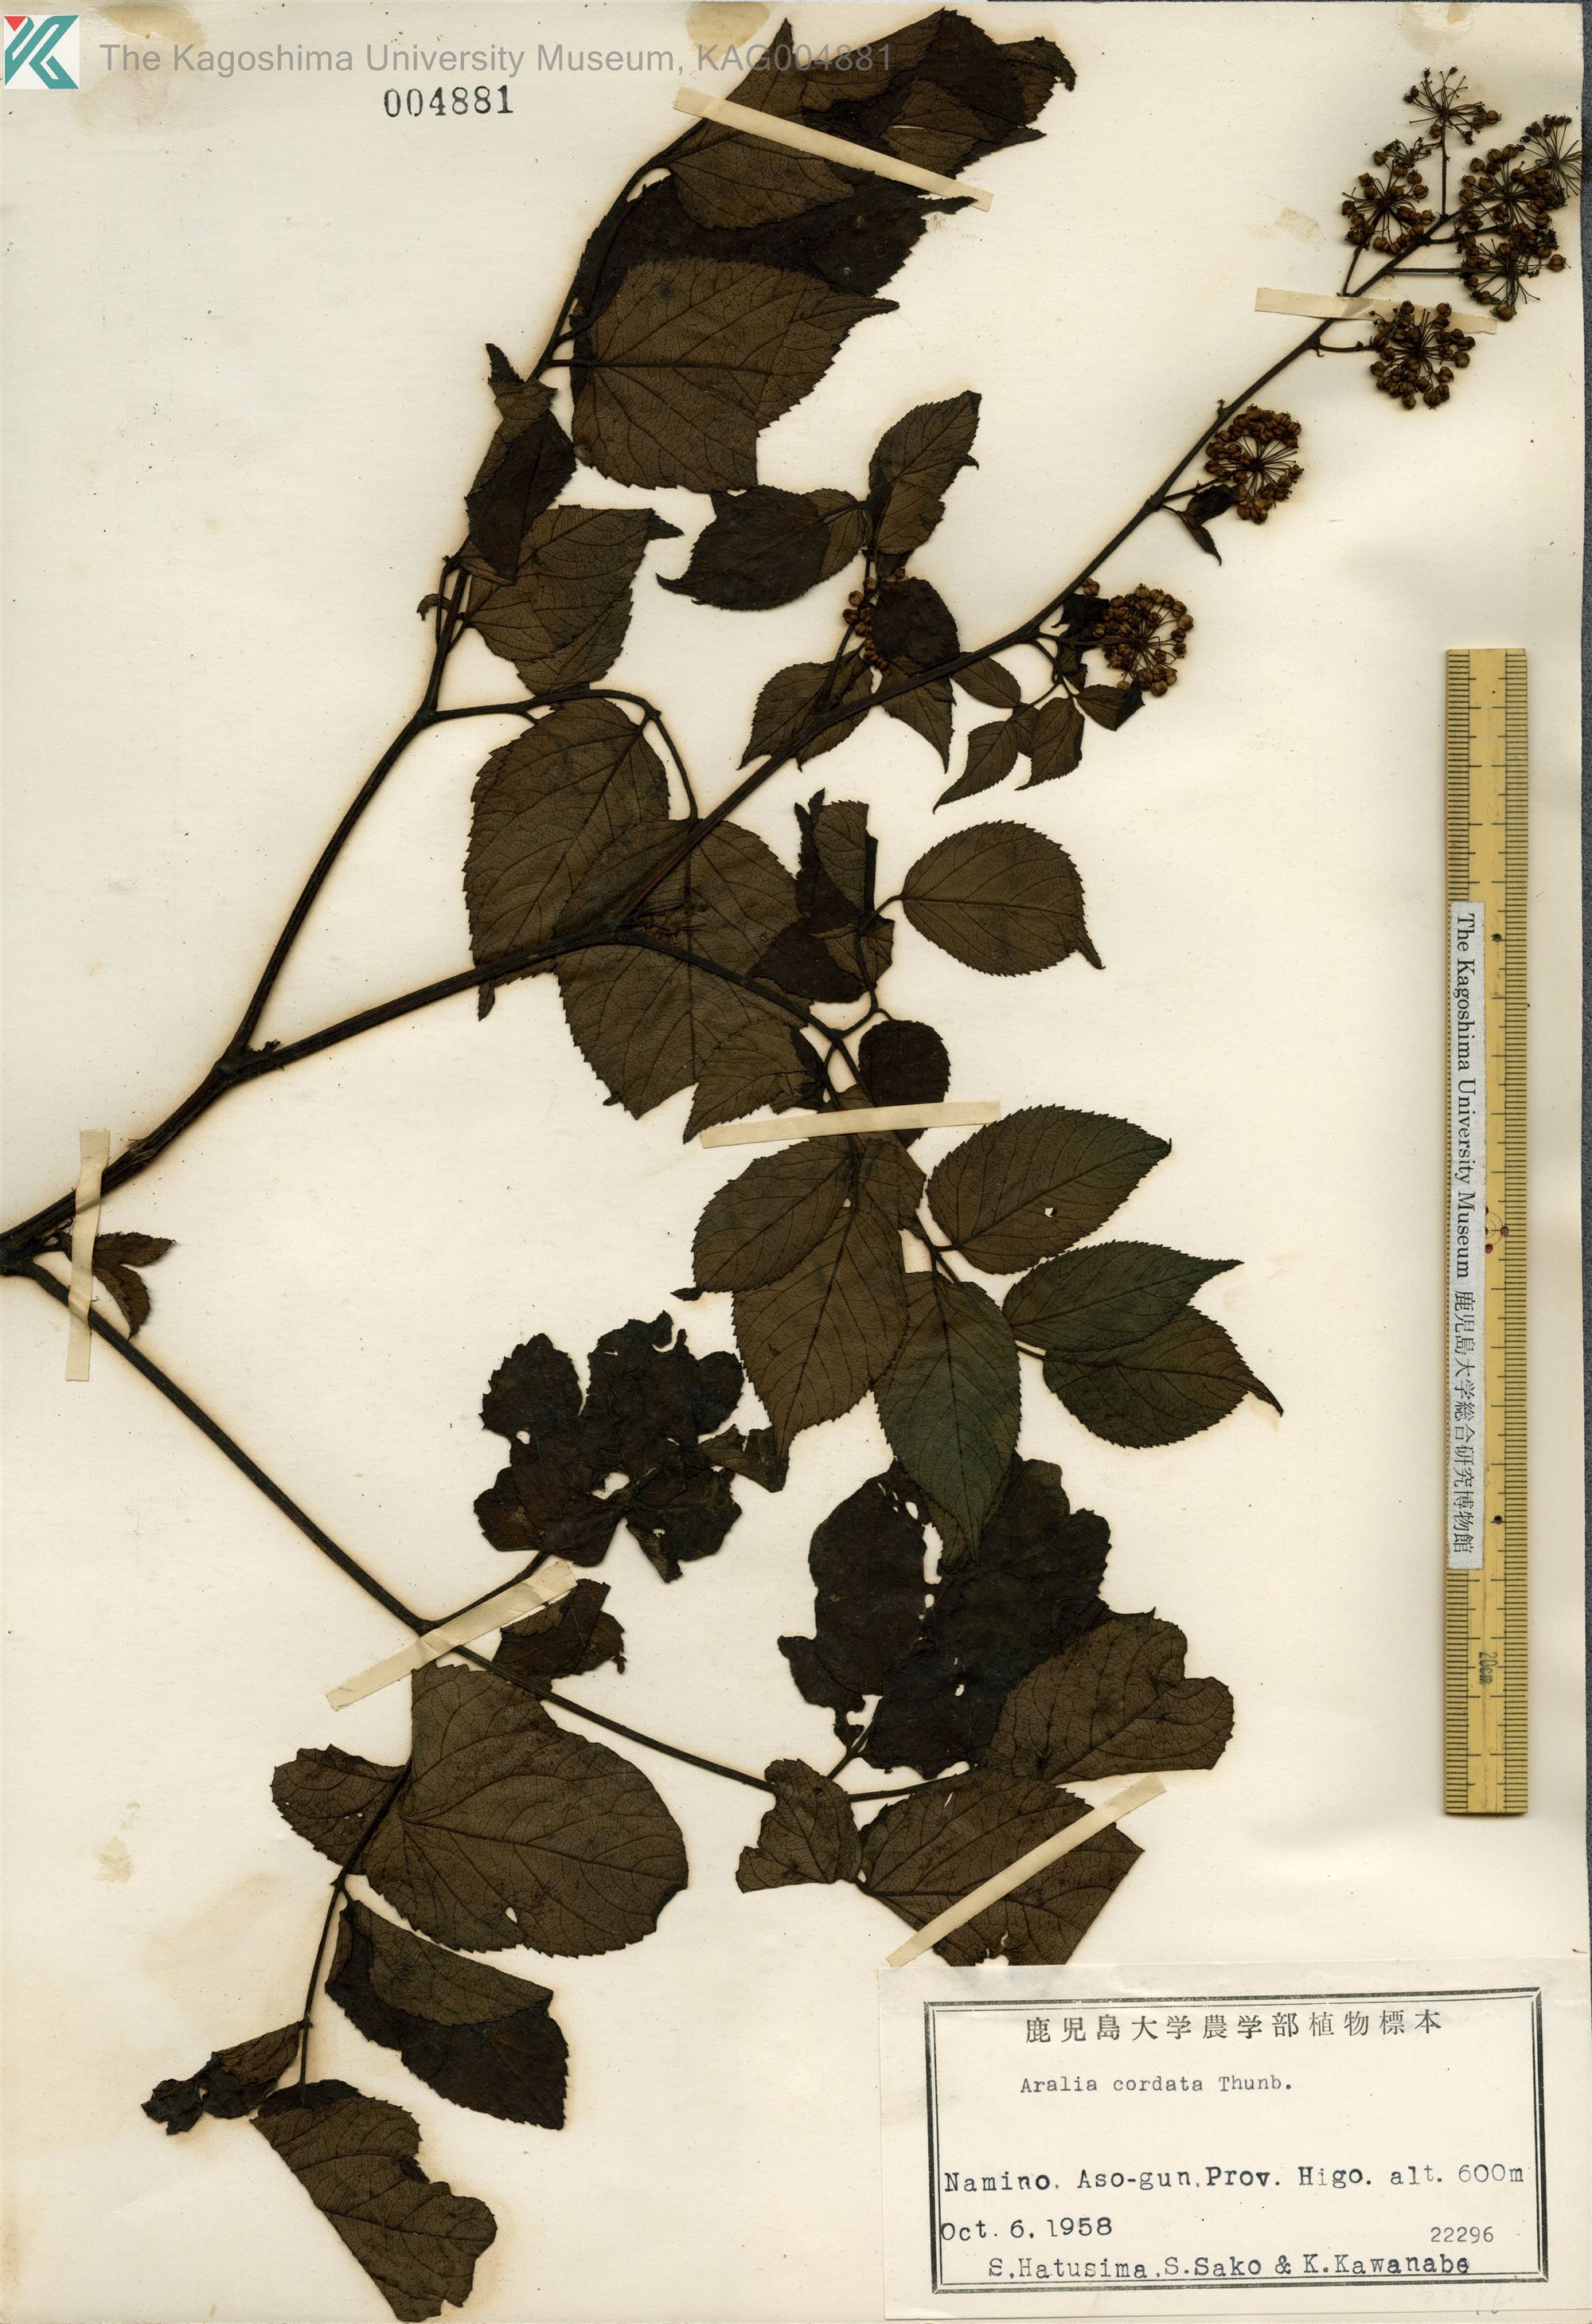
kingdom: Plantae
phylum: Tracheophyta
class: Magnoliopsida
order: Apiales
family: Araliaceae
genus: Aralia
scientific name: Aralia cordata
